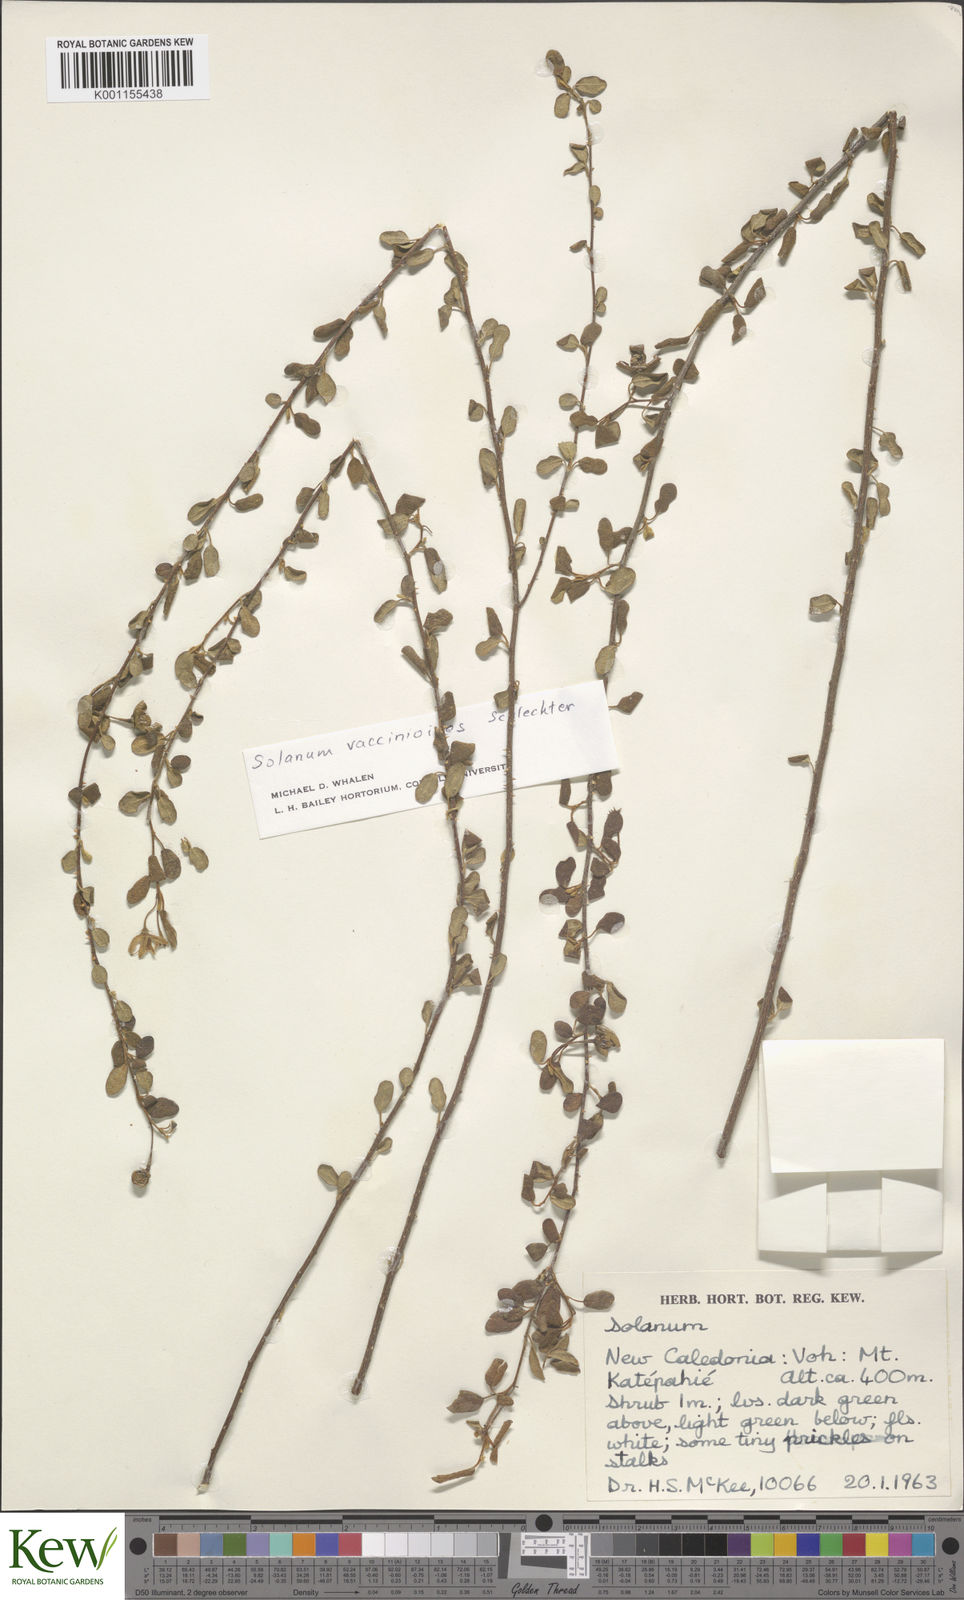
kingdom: Plantae
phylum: Tracheophyta
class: Magnoliopsida
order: Solanales
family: Solanaceae
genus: Solanum
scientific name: Solanum vaccinioides
